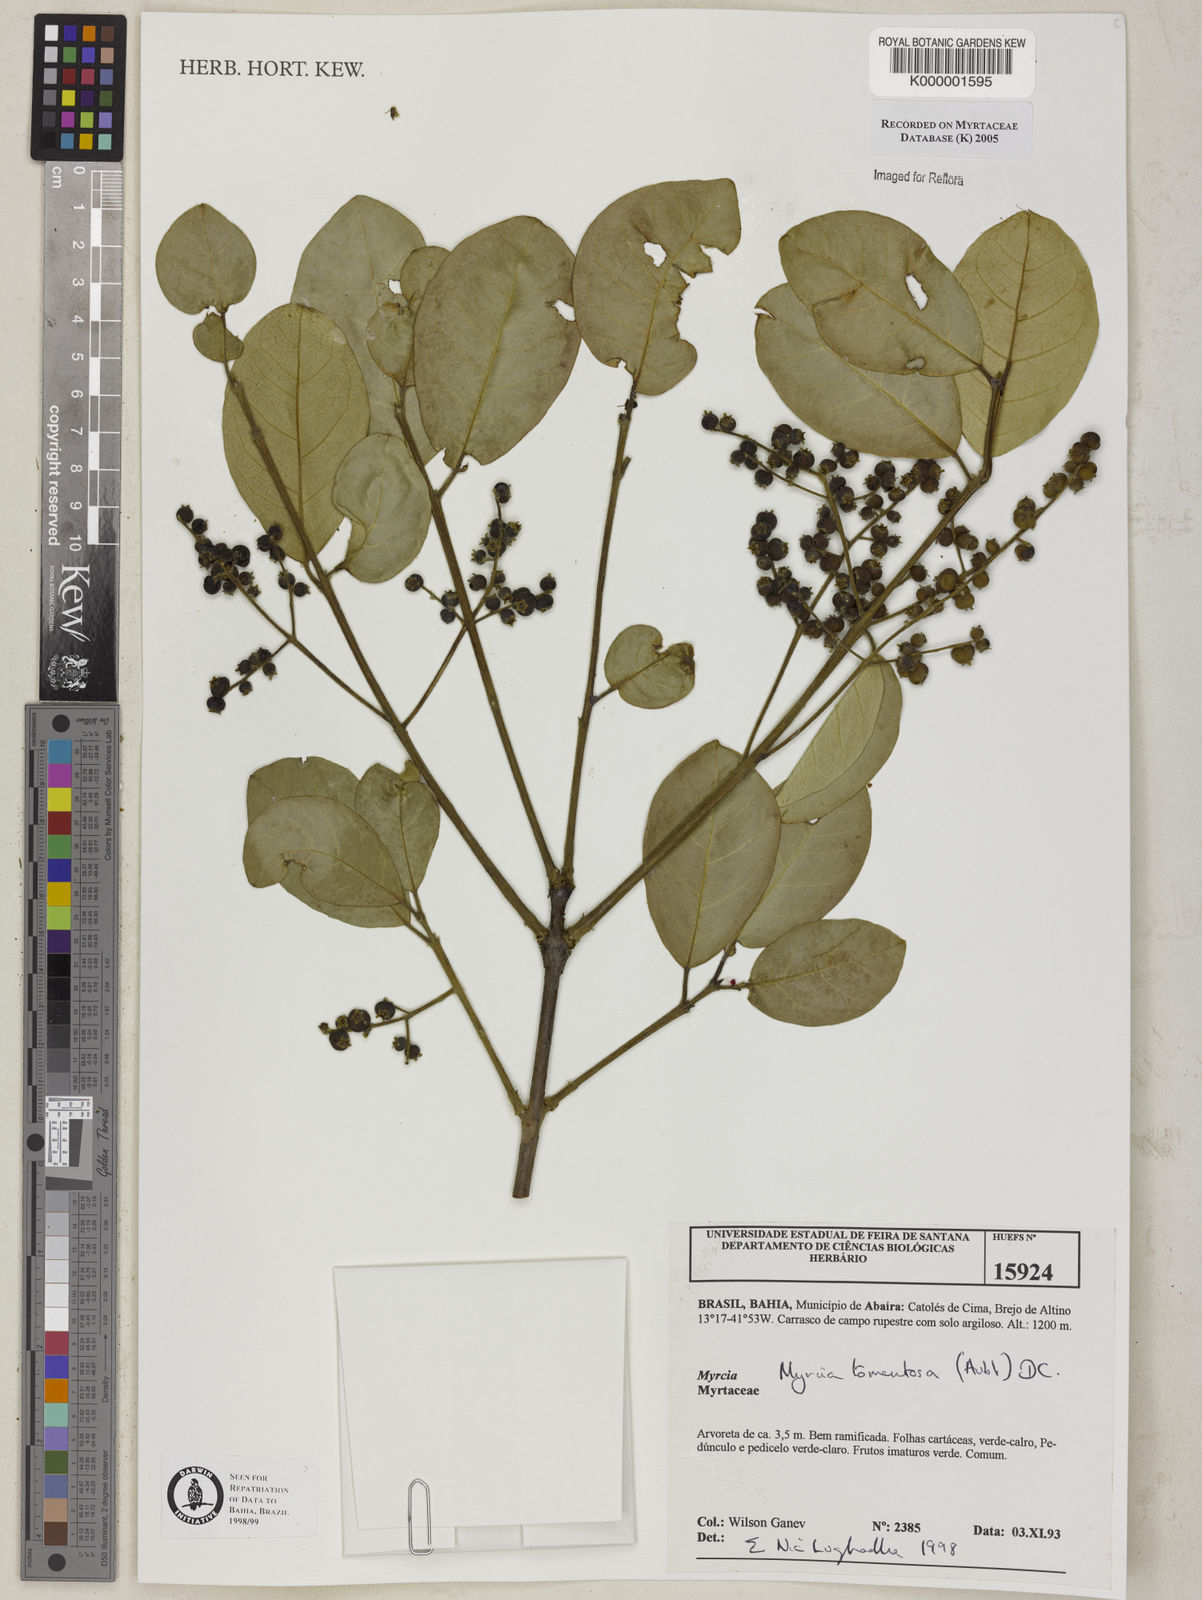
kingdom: Plantae
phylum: Tracheophyta
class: Magnoliopsida
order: Myrtales
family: Myrtaceae
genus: Myrcia
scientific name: Myrcia tomentosa
